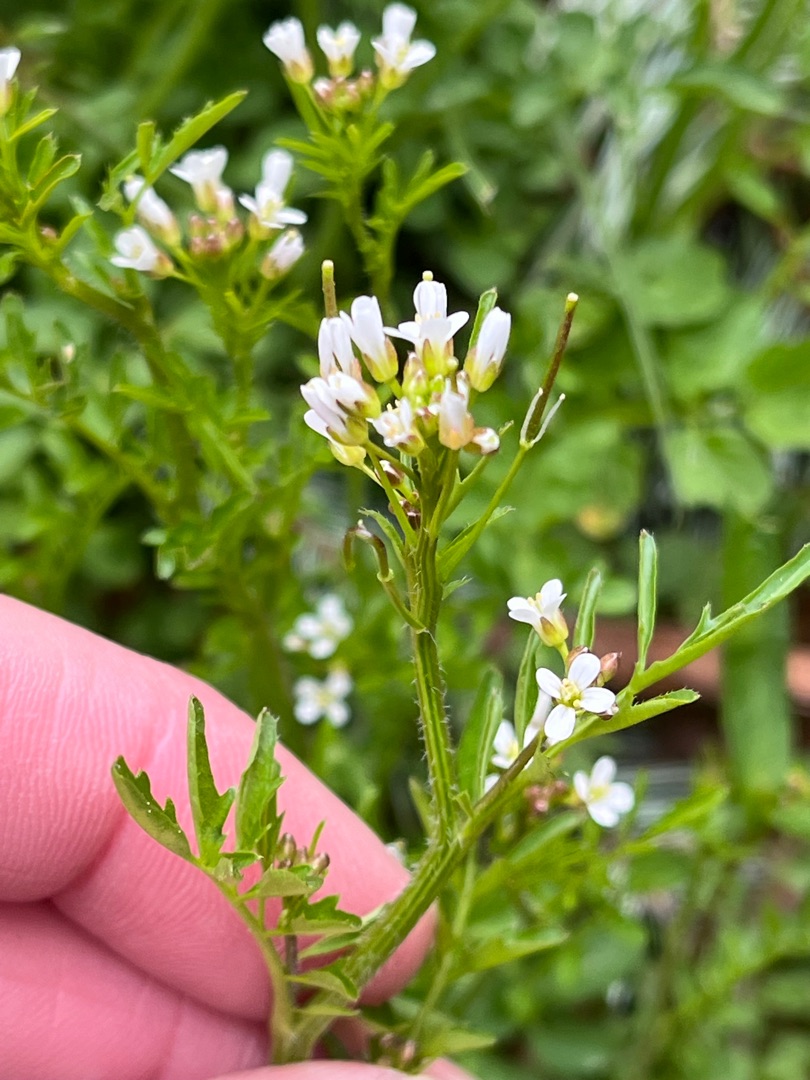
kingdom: Plantae
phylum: Tracheophyta
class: Magnoliopsida
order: Brassicales
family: Brassicaceae
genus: Cardamine
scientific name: Cardamine flexuosa
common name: Skov-springklap
